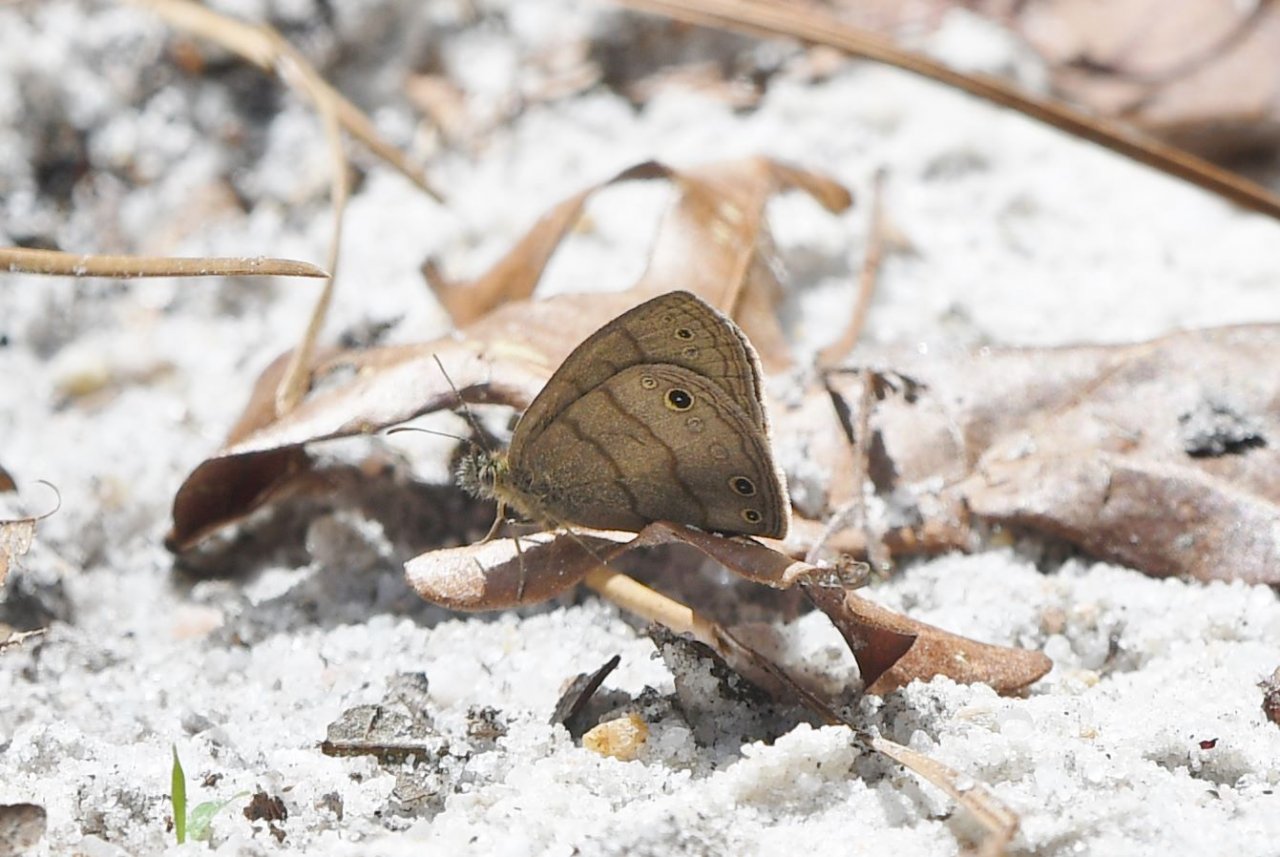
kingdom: Animalia
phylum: Arthropoda
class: Insecta
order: Lepidoptera
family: Nymphalidae
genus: Hermeuptychia
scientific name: Hermeuptychia hermes
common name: Carolina Satyr
